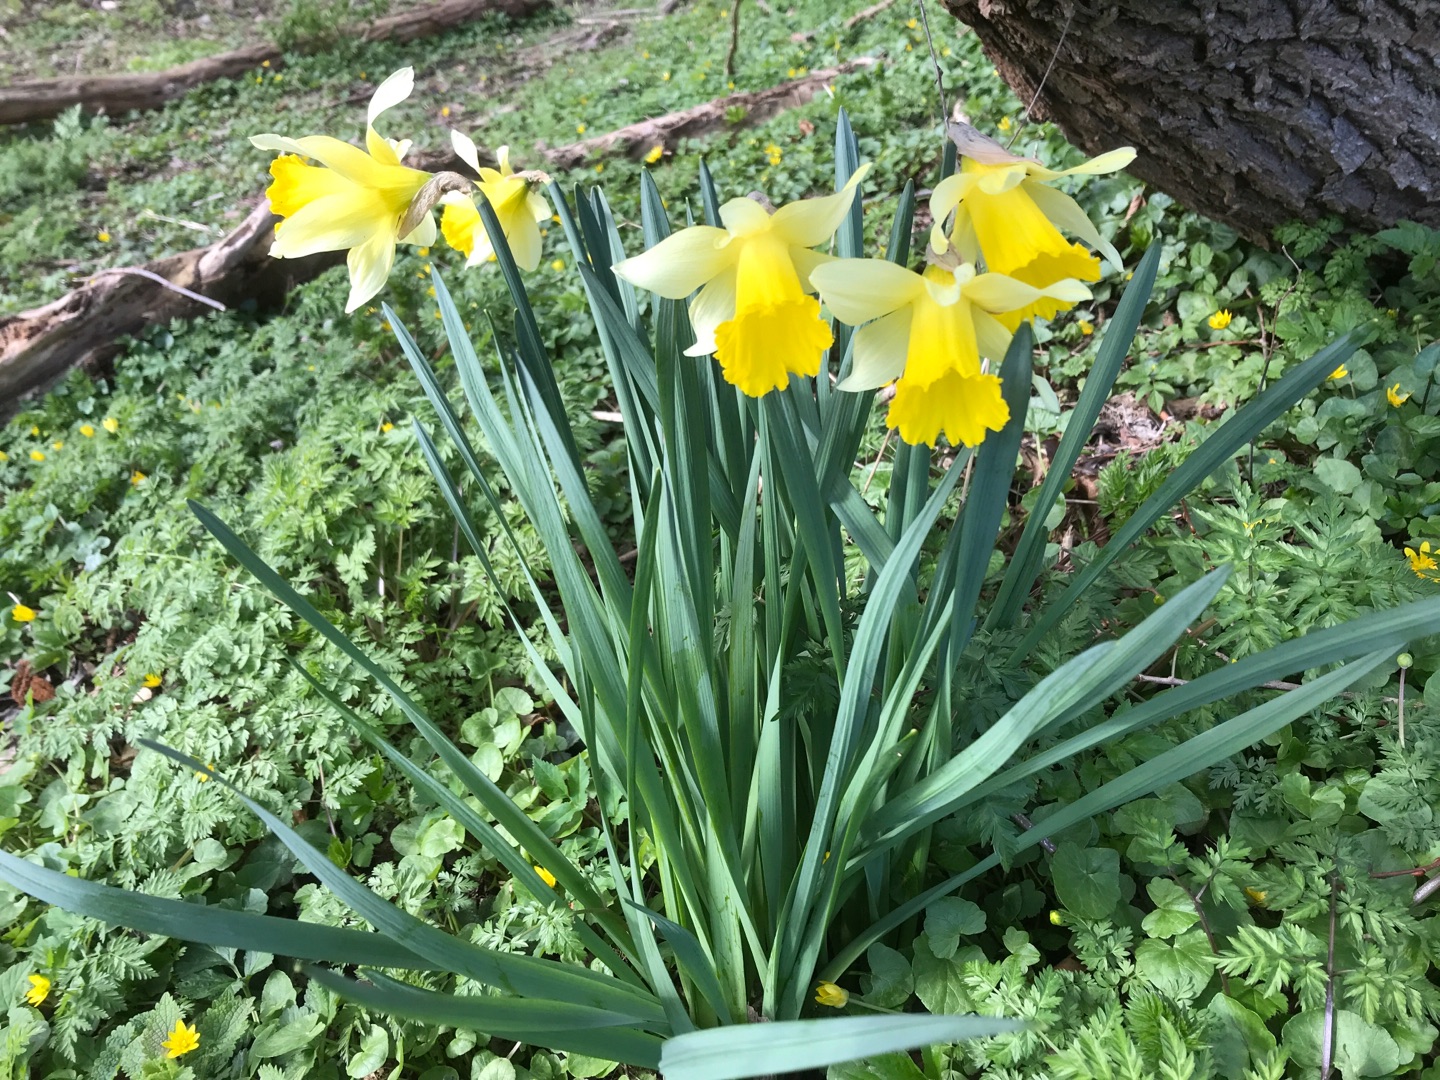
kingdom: Plantae
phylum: Tracheophyta
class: Liliopsida
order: Asparagales
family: Amaryllidaceae
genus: Narcissus
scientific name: Narcissus pseudonarcissus
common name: Påskelilje
